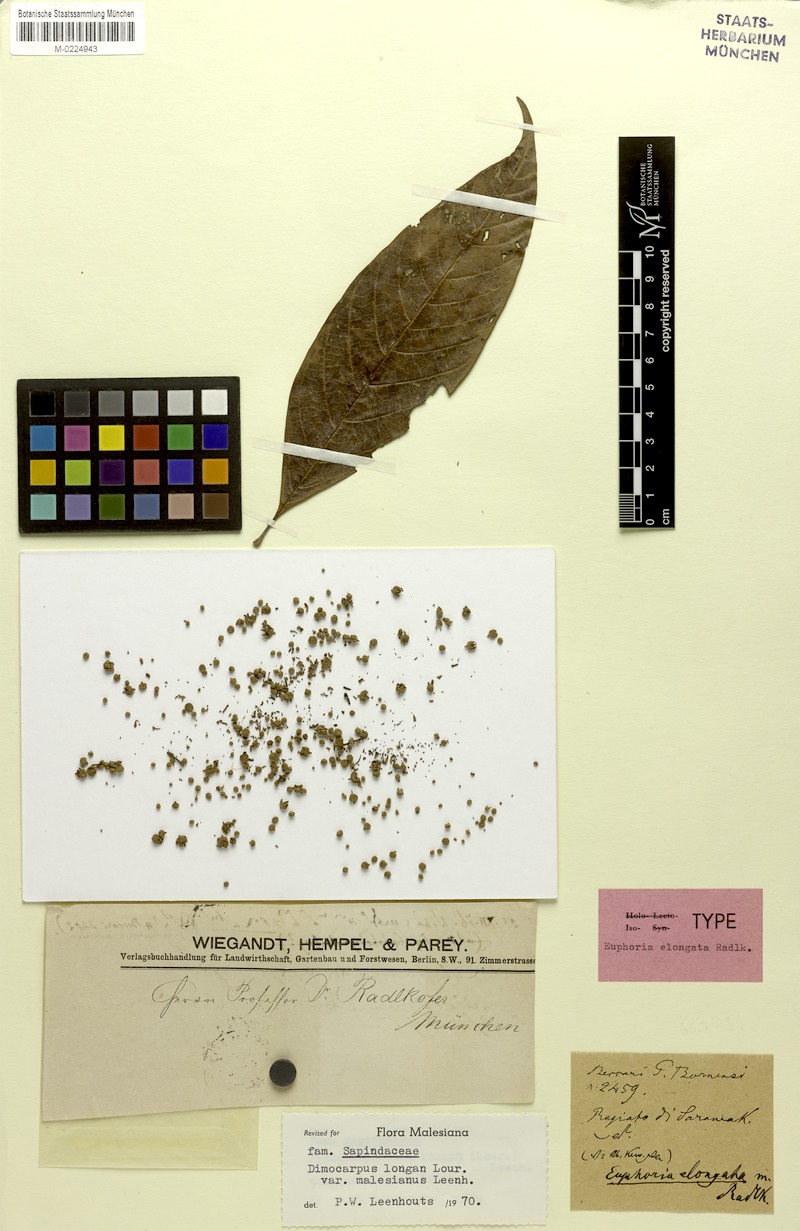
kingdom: Plantae
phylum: Tracheophyta
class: Magnoliopsida
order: Sapindales
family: Sapindaceae
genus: Dimocarpus
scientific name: Dimocarpus malesianus
